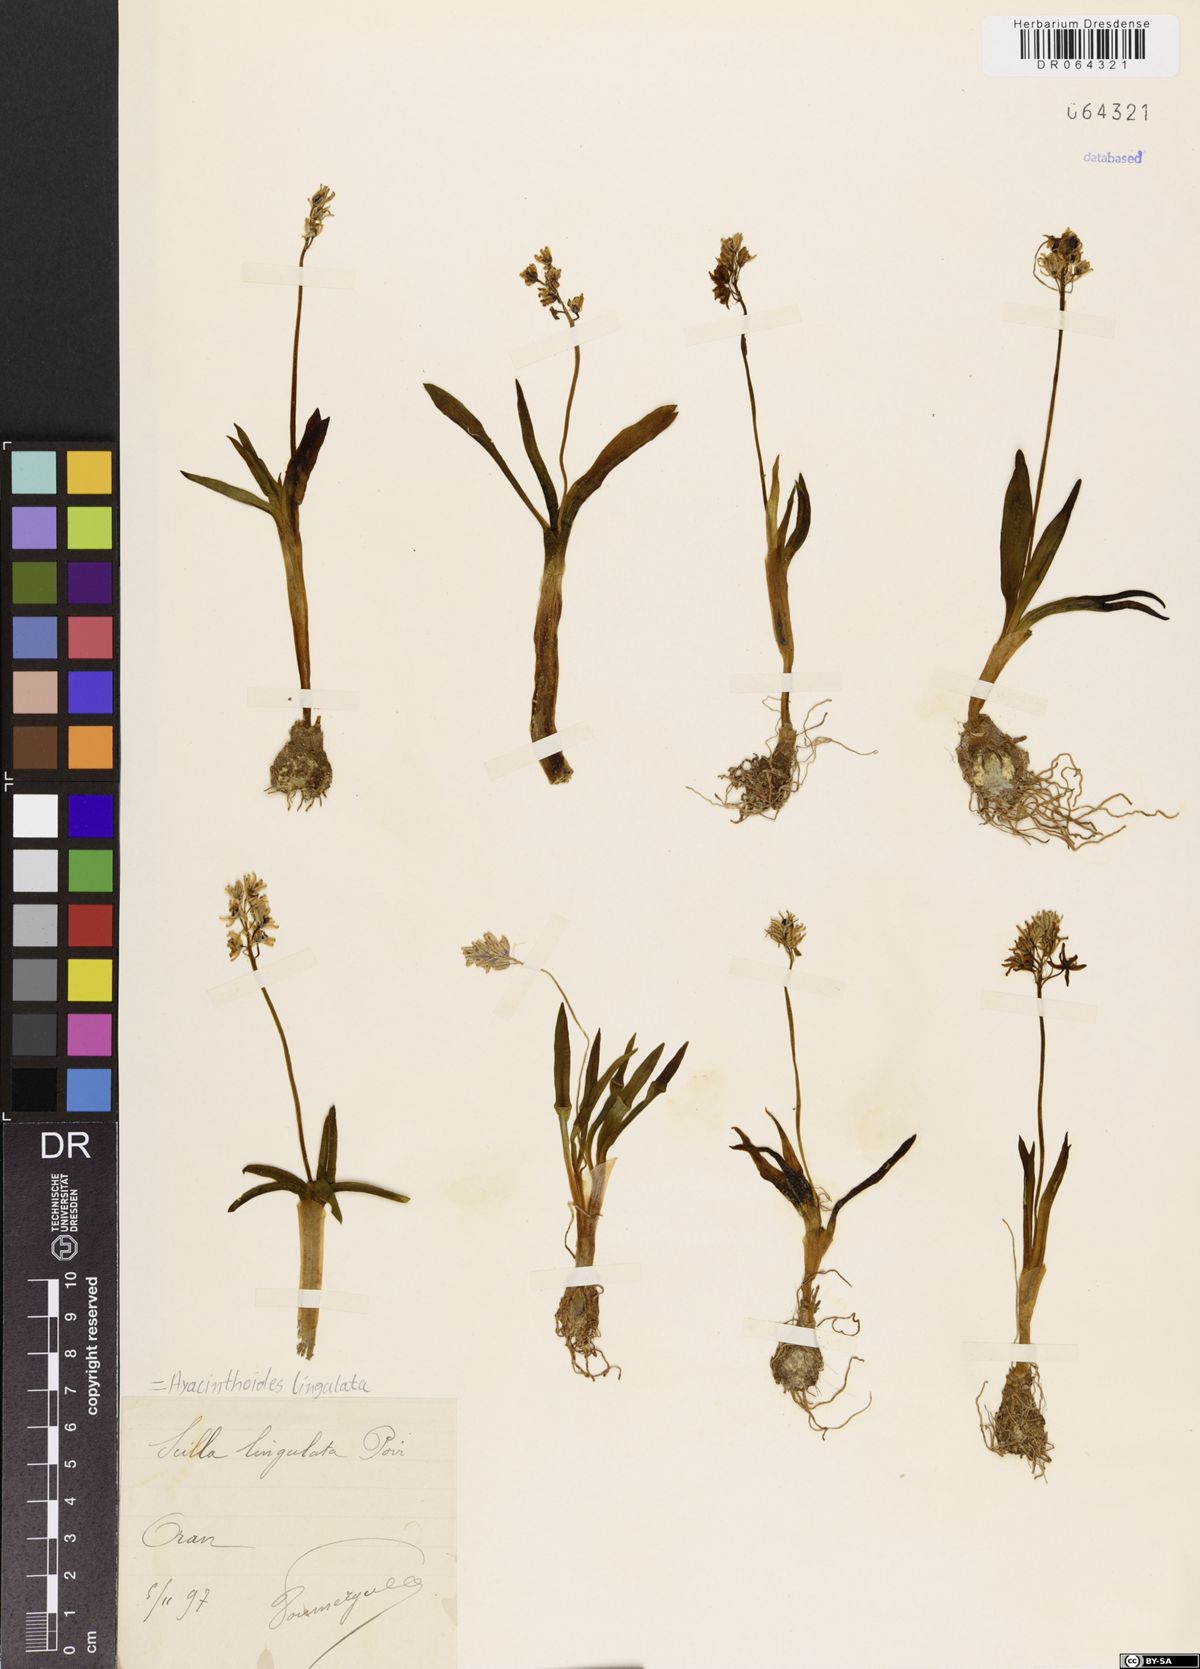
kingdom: Plantae
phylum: Tracheophyta
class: Liliopsida
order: Asparagales
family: Asparagaceae
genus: Hyacinthoides
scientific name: Hyacinthoides lingulata
